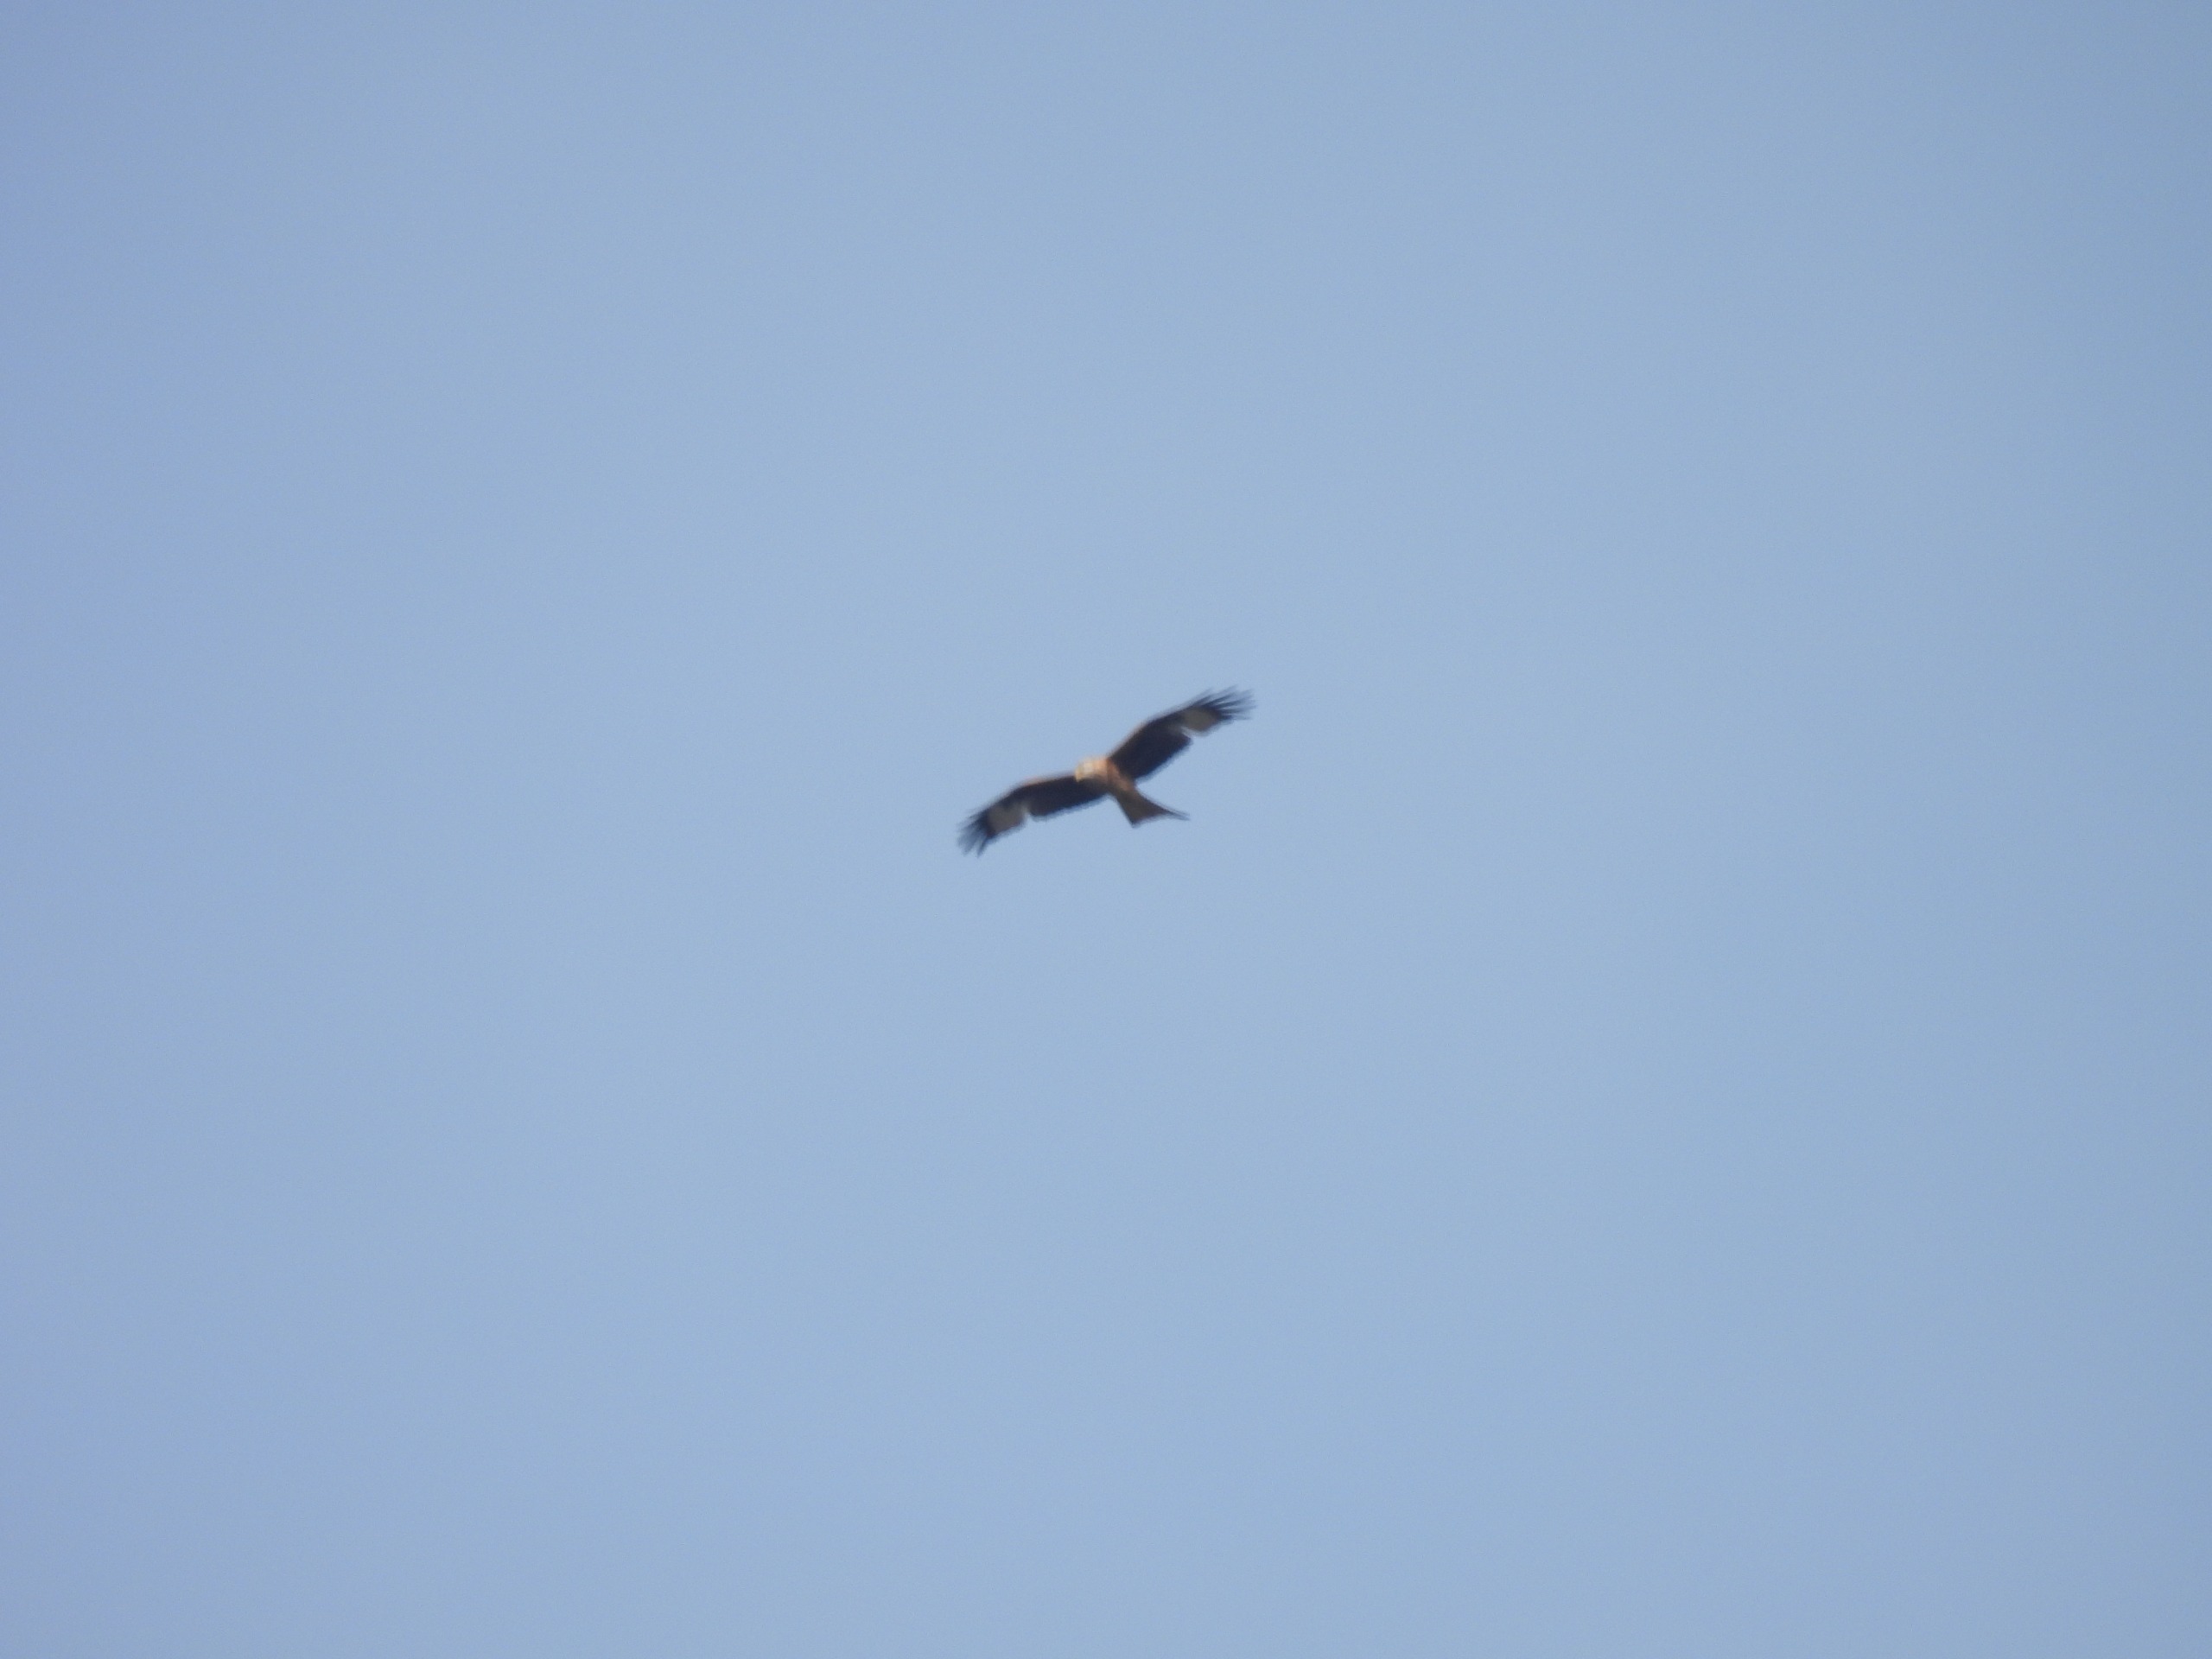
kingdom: Animalia
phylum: Chordata
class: Aves
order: Accipitriformes
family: Accipitridae
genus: Milvus
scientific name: Milvus milvus
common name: Rød glente
